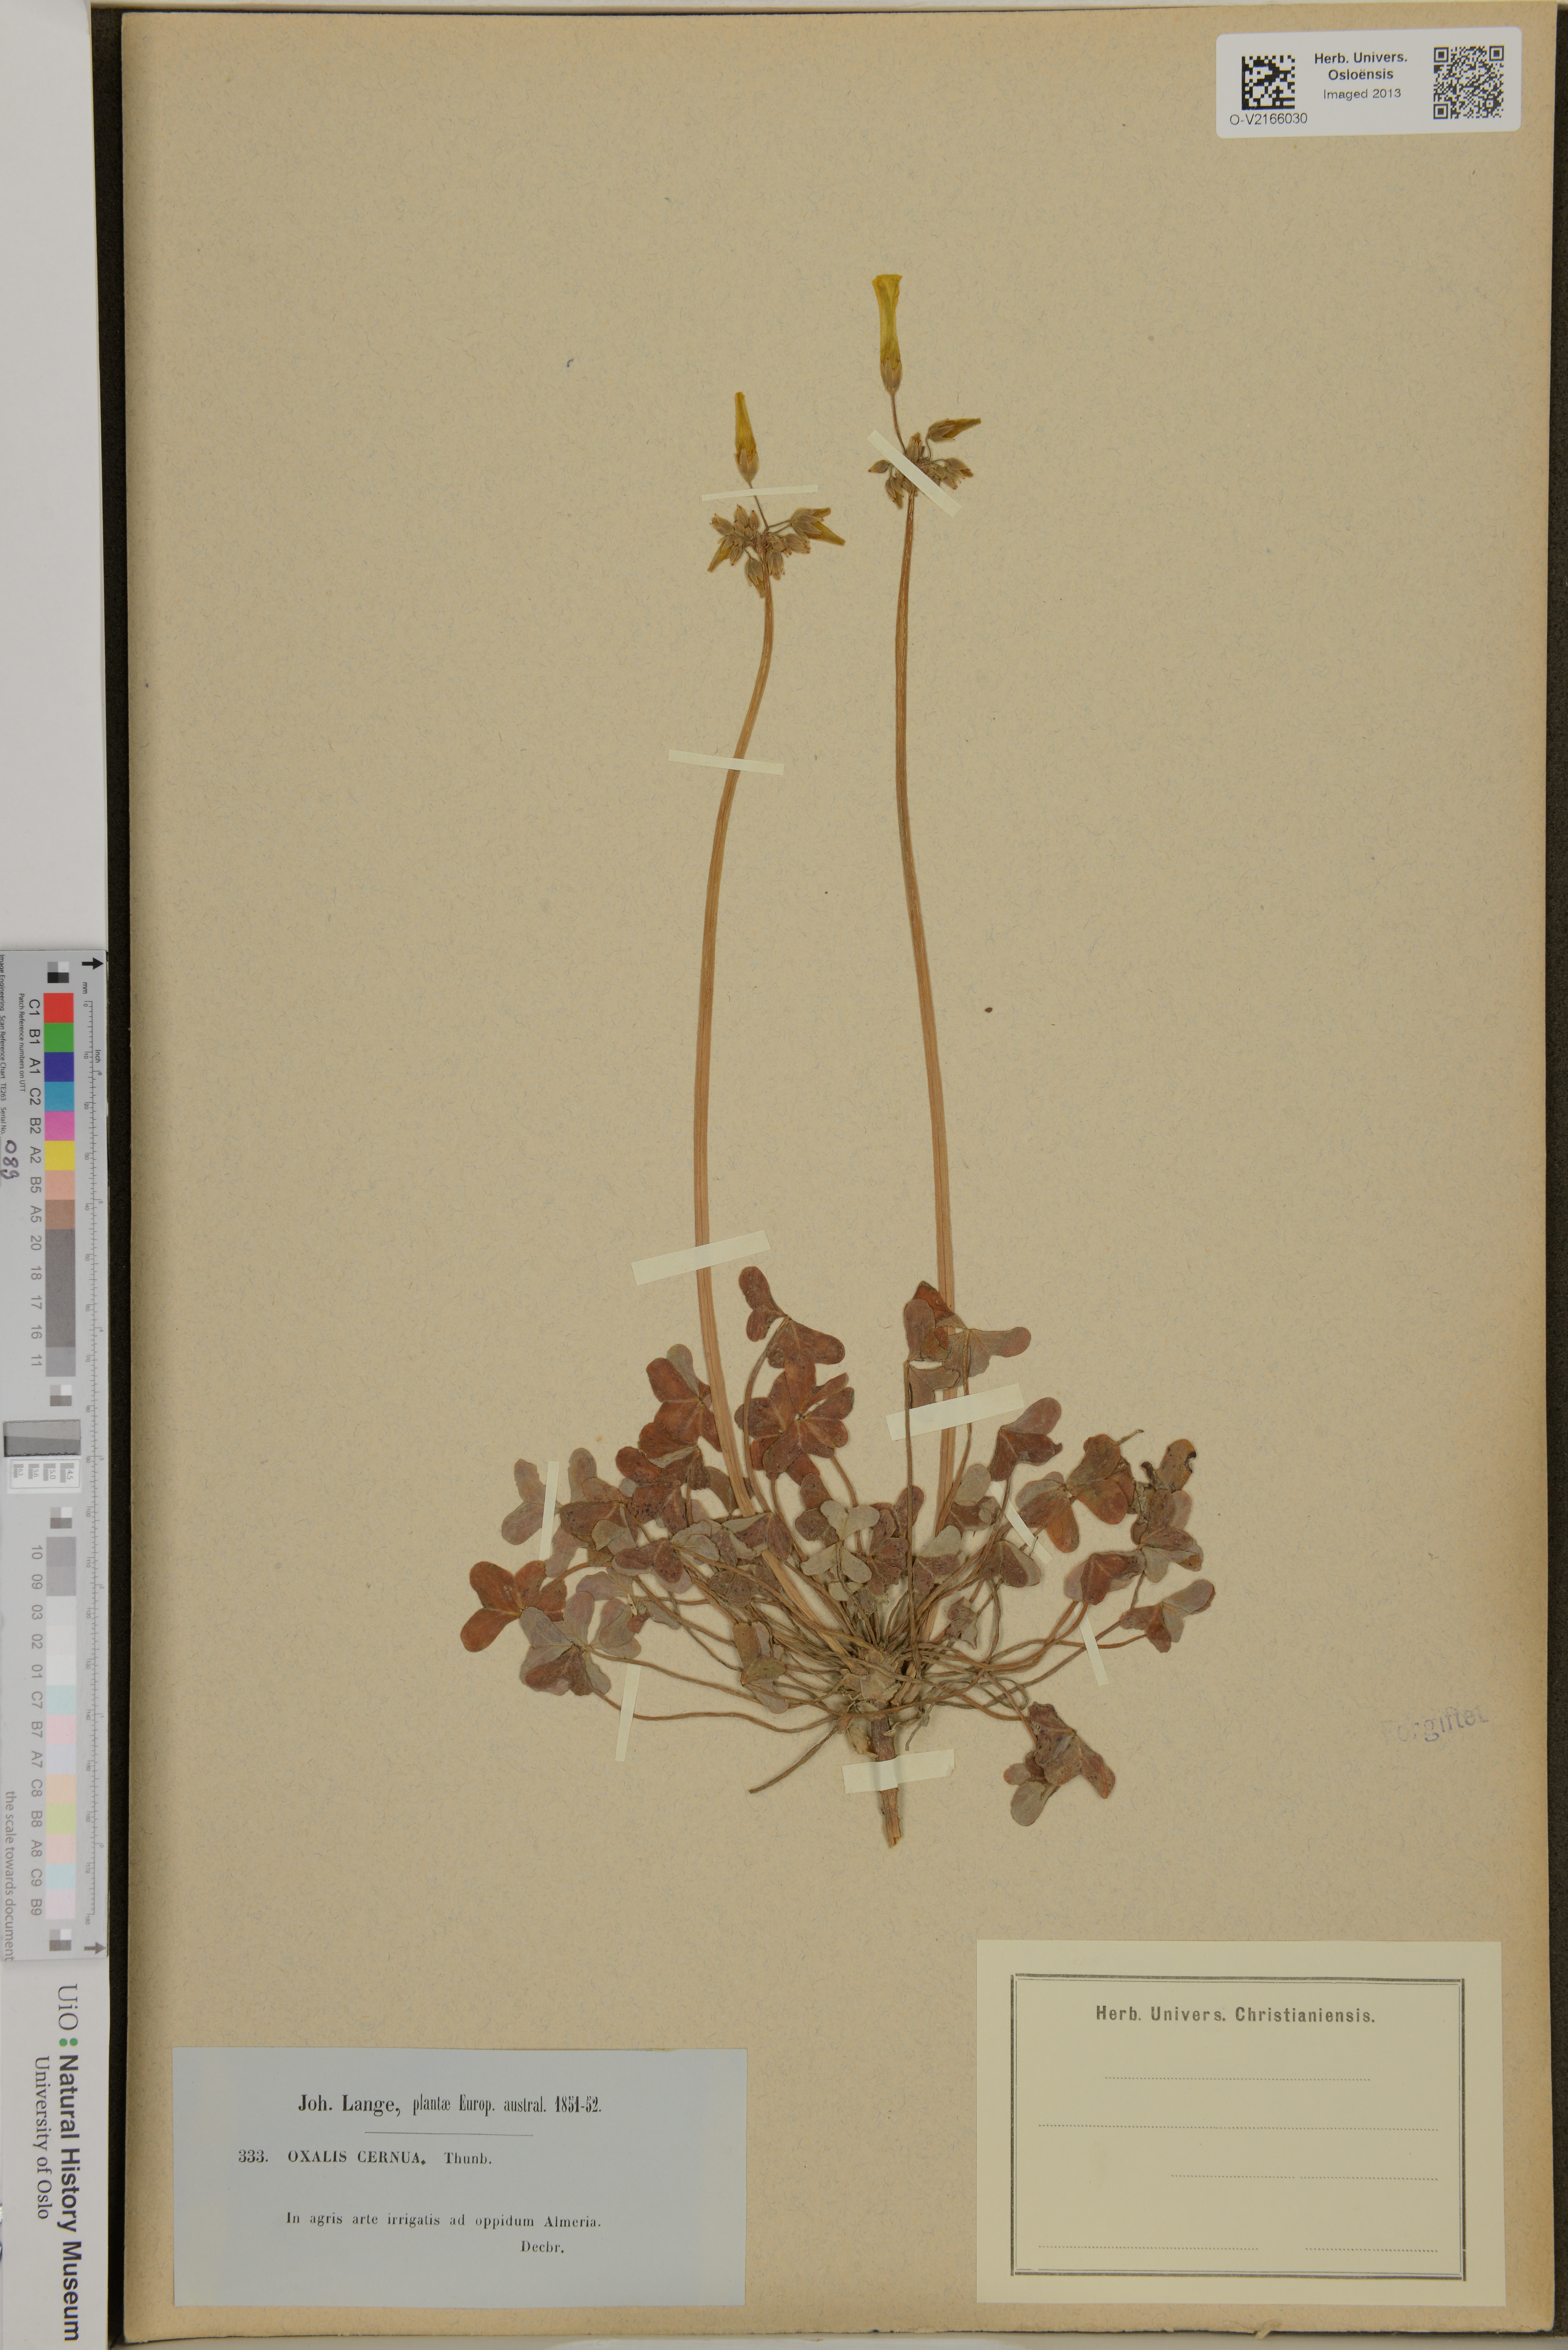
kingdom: Plantae
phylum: Tracheophyta
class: Magnoliopsida
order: Oxalidales
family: Oxalidaceae
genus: Oxalis
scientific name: Oxalis pes-caprae
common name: Bermuda-buttercup
